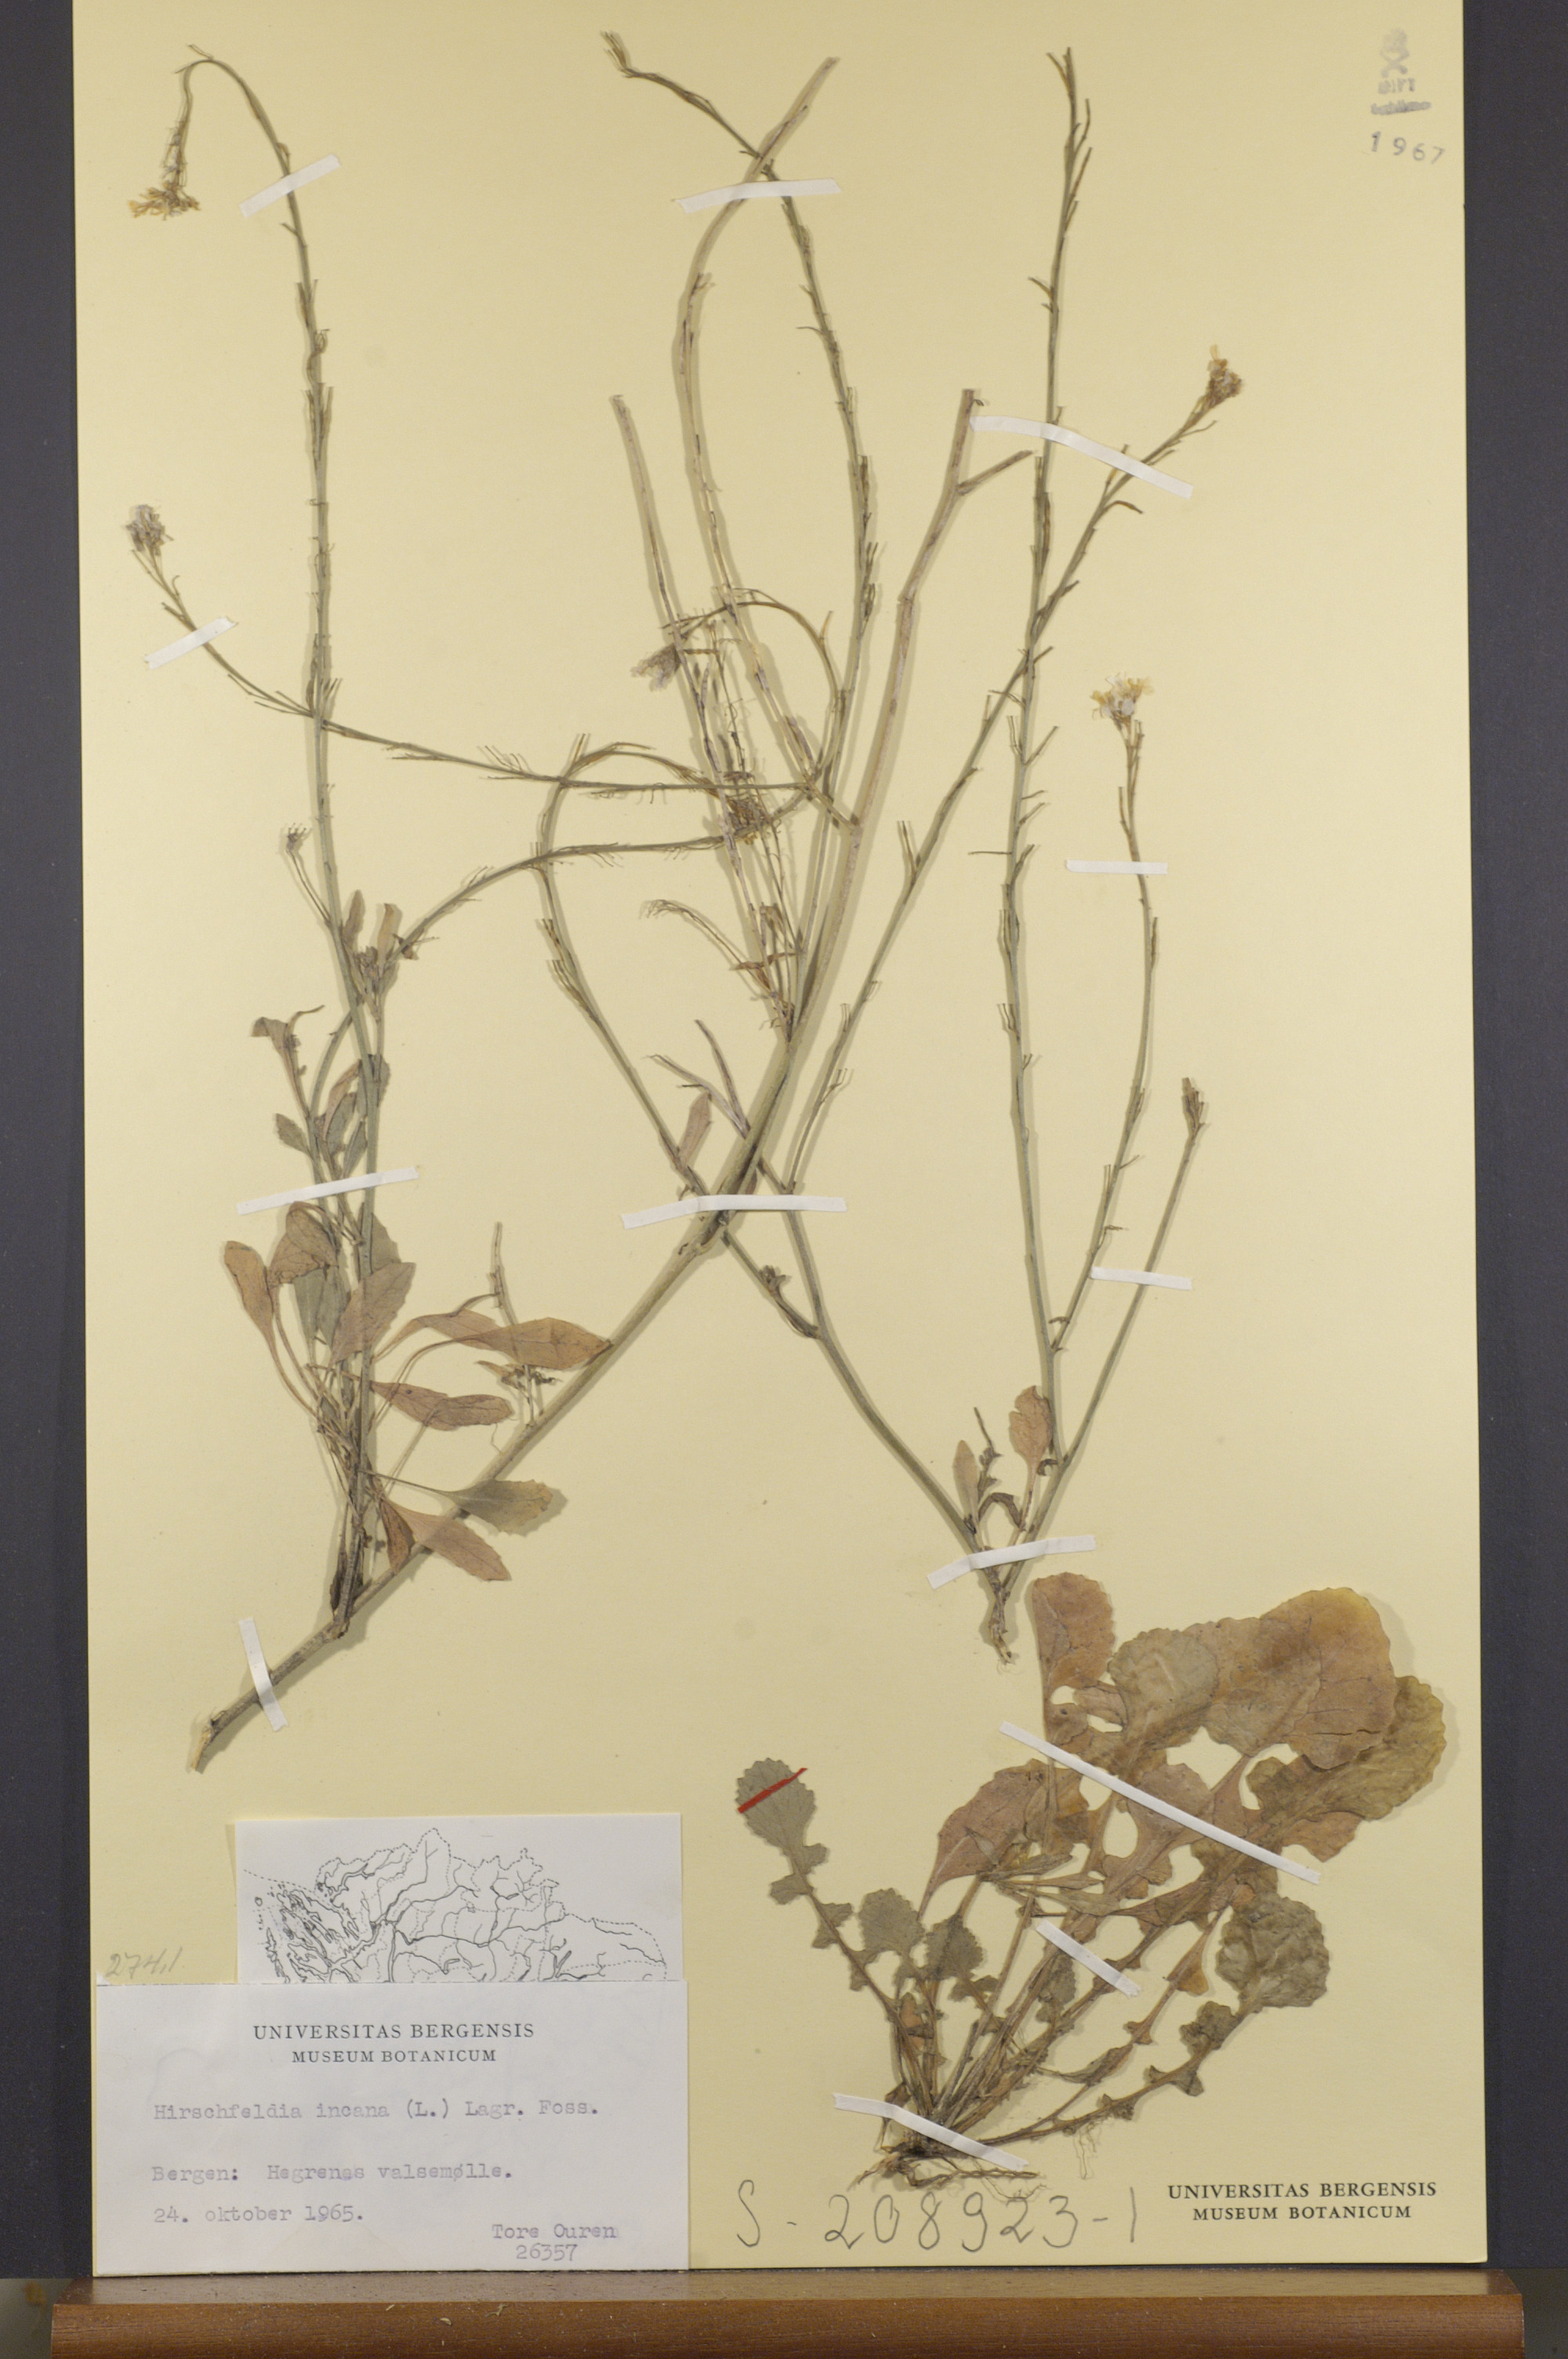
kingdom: Plantae
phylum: Tracheophyta
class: Magnoliopsida
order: Brassicales
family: Brassicaceae
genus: Hirschfeldia
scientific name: Hirschfeldia incana
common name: Hoary mustard
